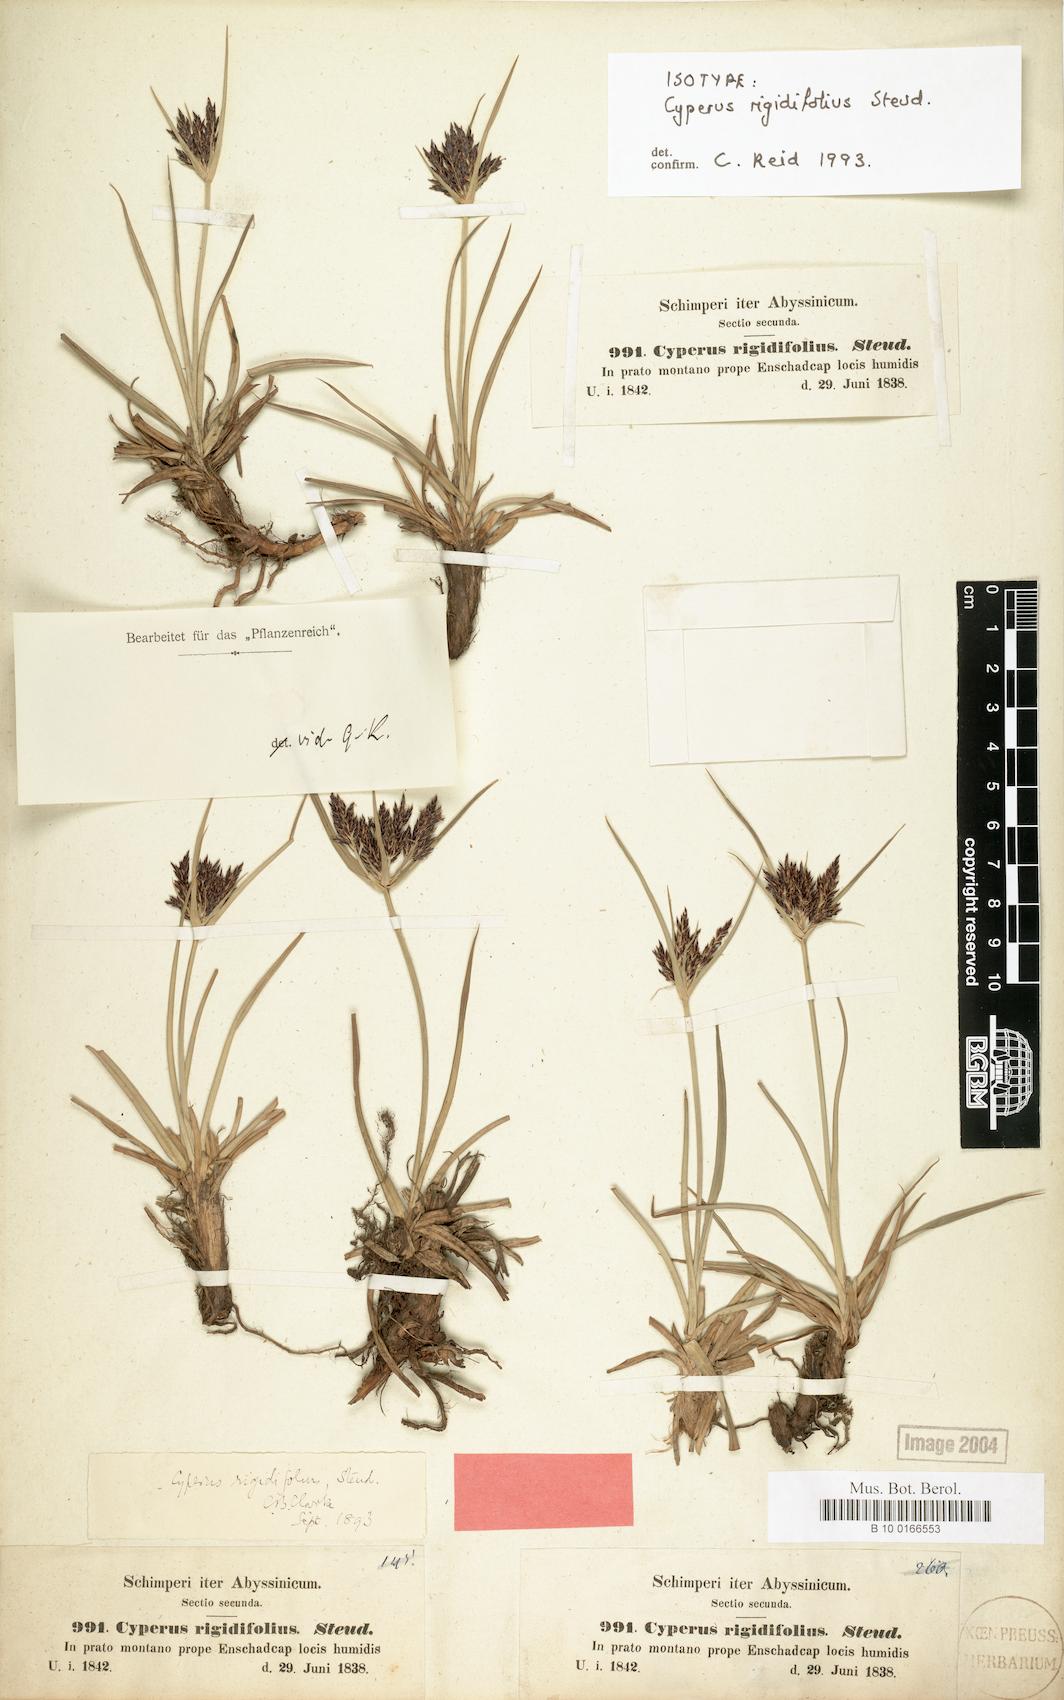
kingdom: Plantae
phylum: Tracheophyta
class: Liliopsida
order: Poales
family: Cyperaceae
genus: Cyperus
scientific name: Cyperus rigidifolius
